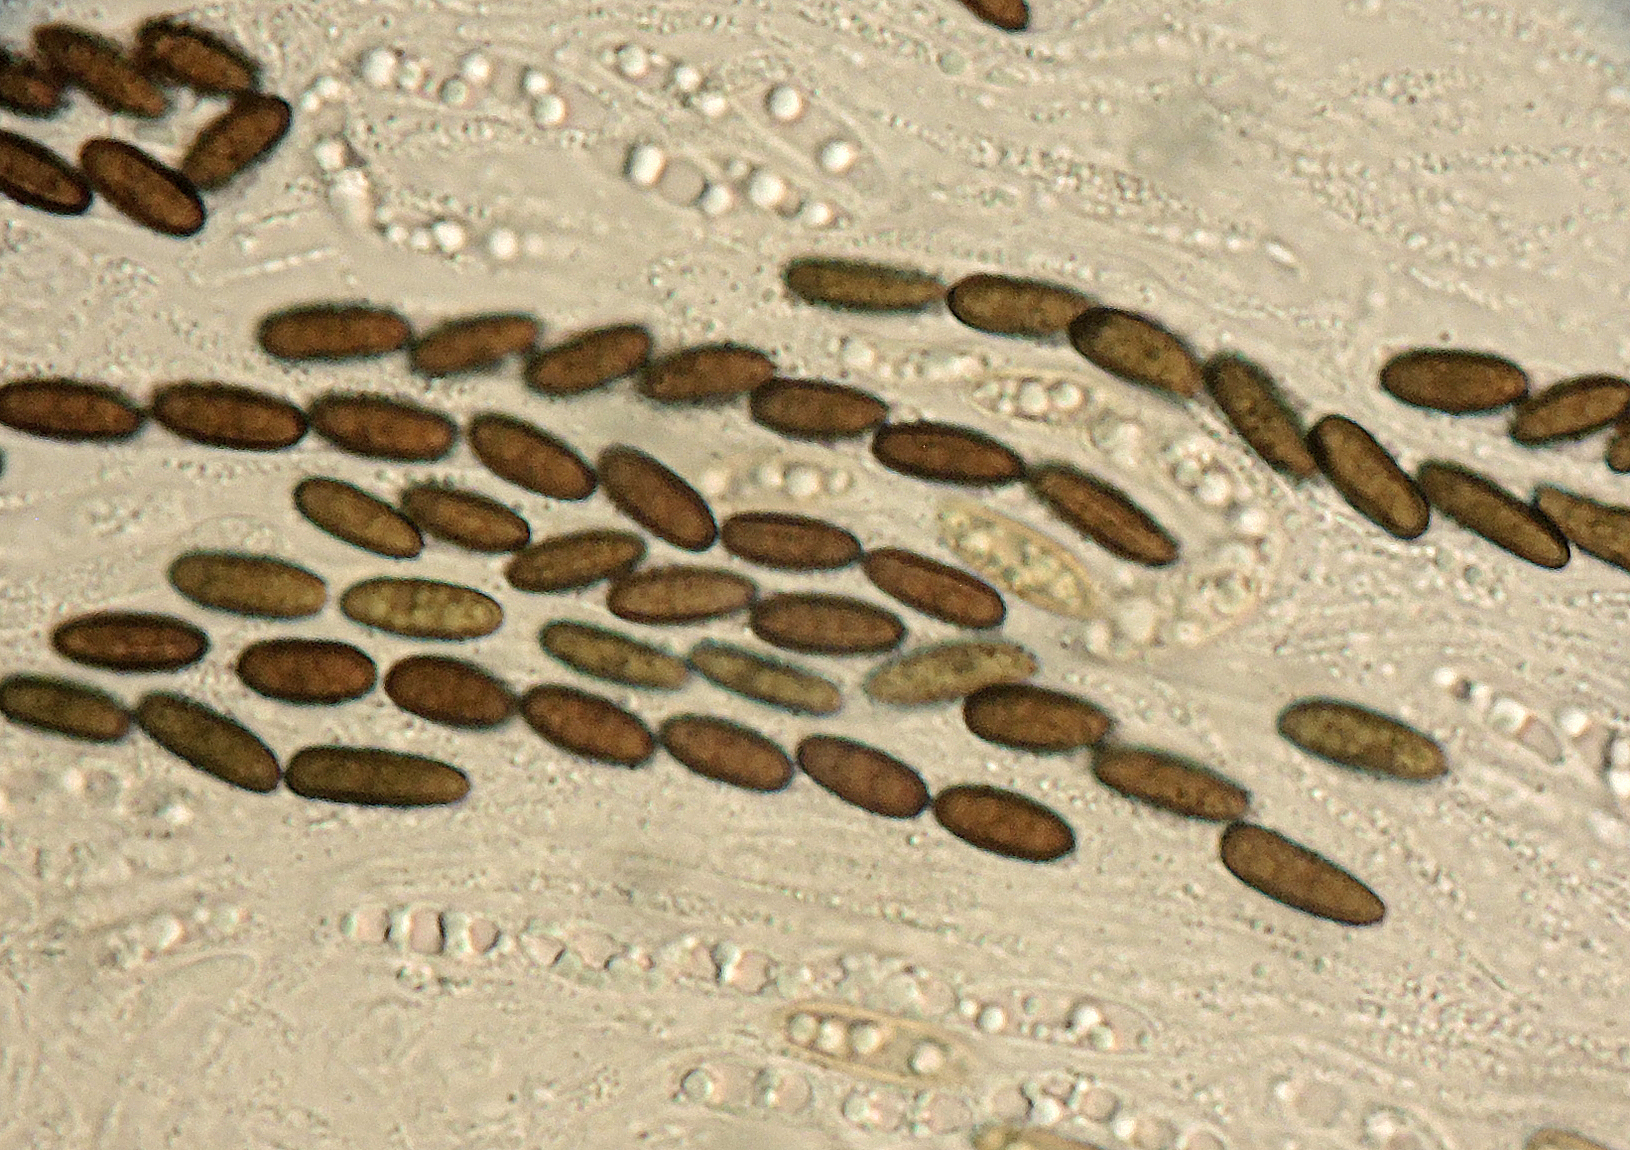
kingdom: Fungi
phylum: Ascomycota
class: Sordariomycetes
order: Xylariales
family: Diatrypaceae
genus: Anthostoma
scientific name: Anthostoma gastrinum
